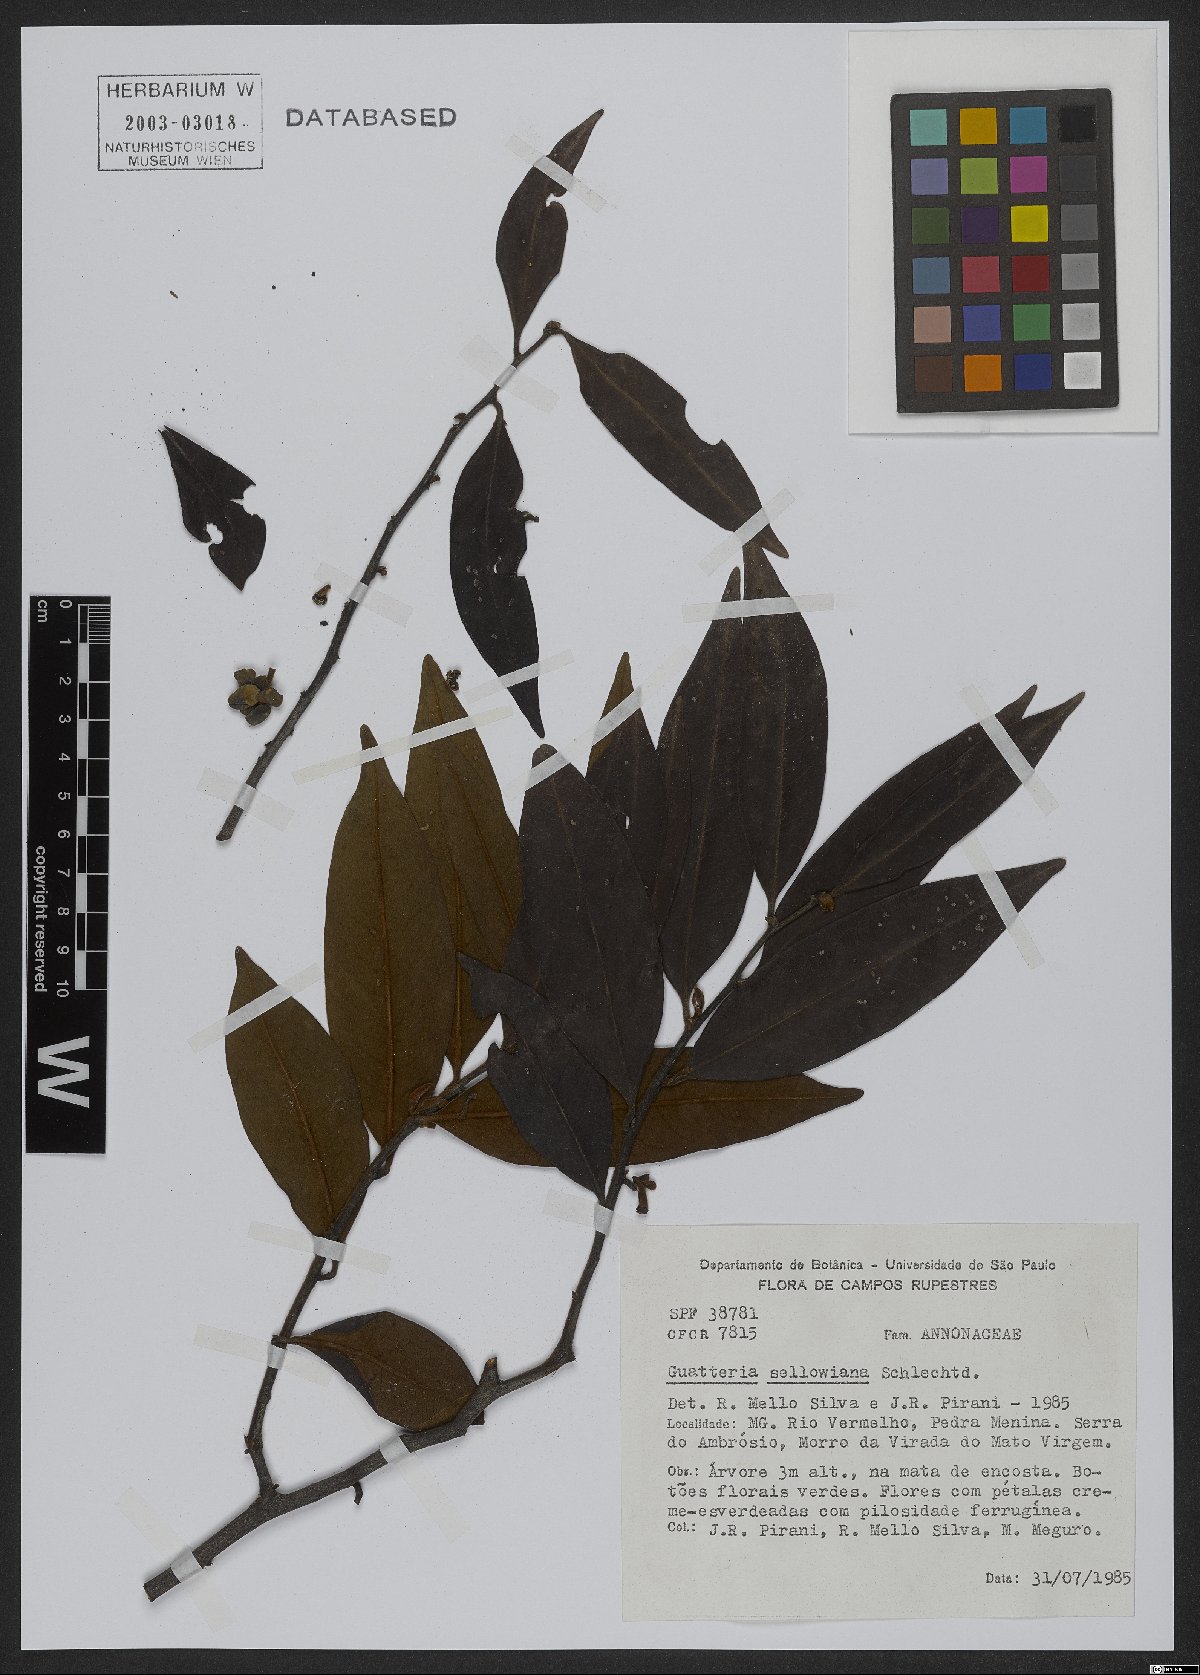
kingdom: Plantae
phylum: Tracheophyta
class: Magnoliopsida
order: Magnoliales
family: Annonaceae
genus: Guatteria
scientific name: Guatteria sellowiana
